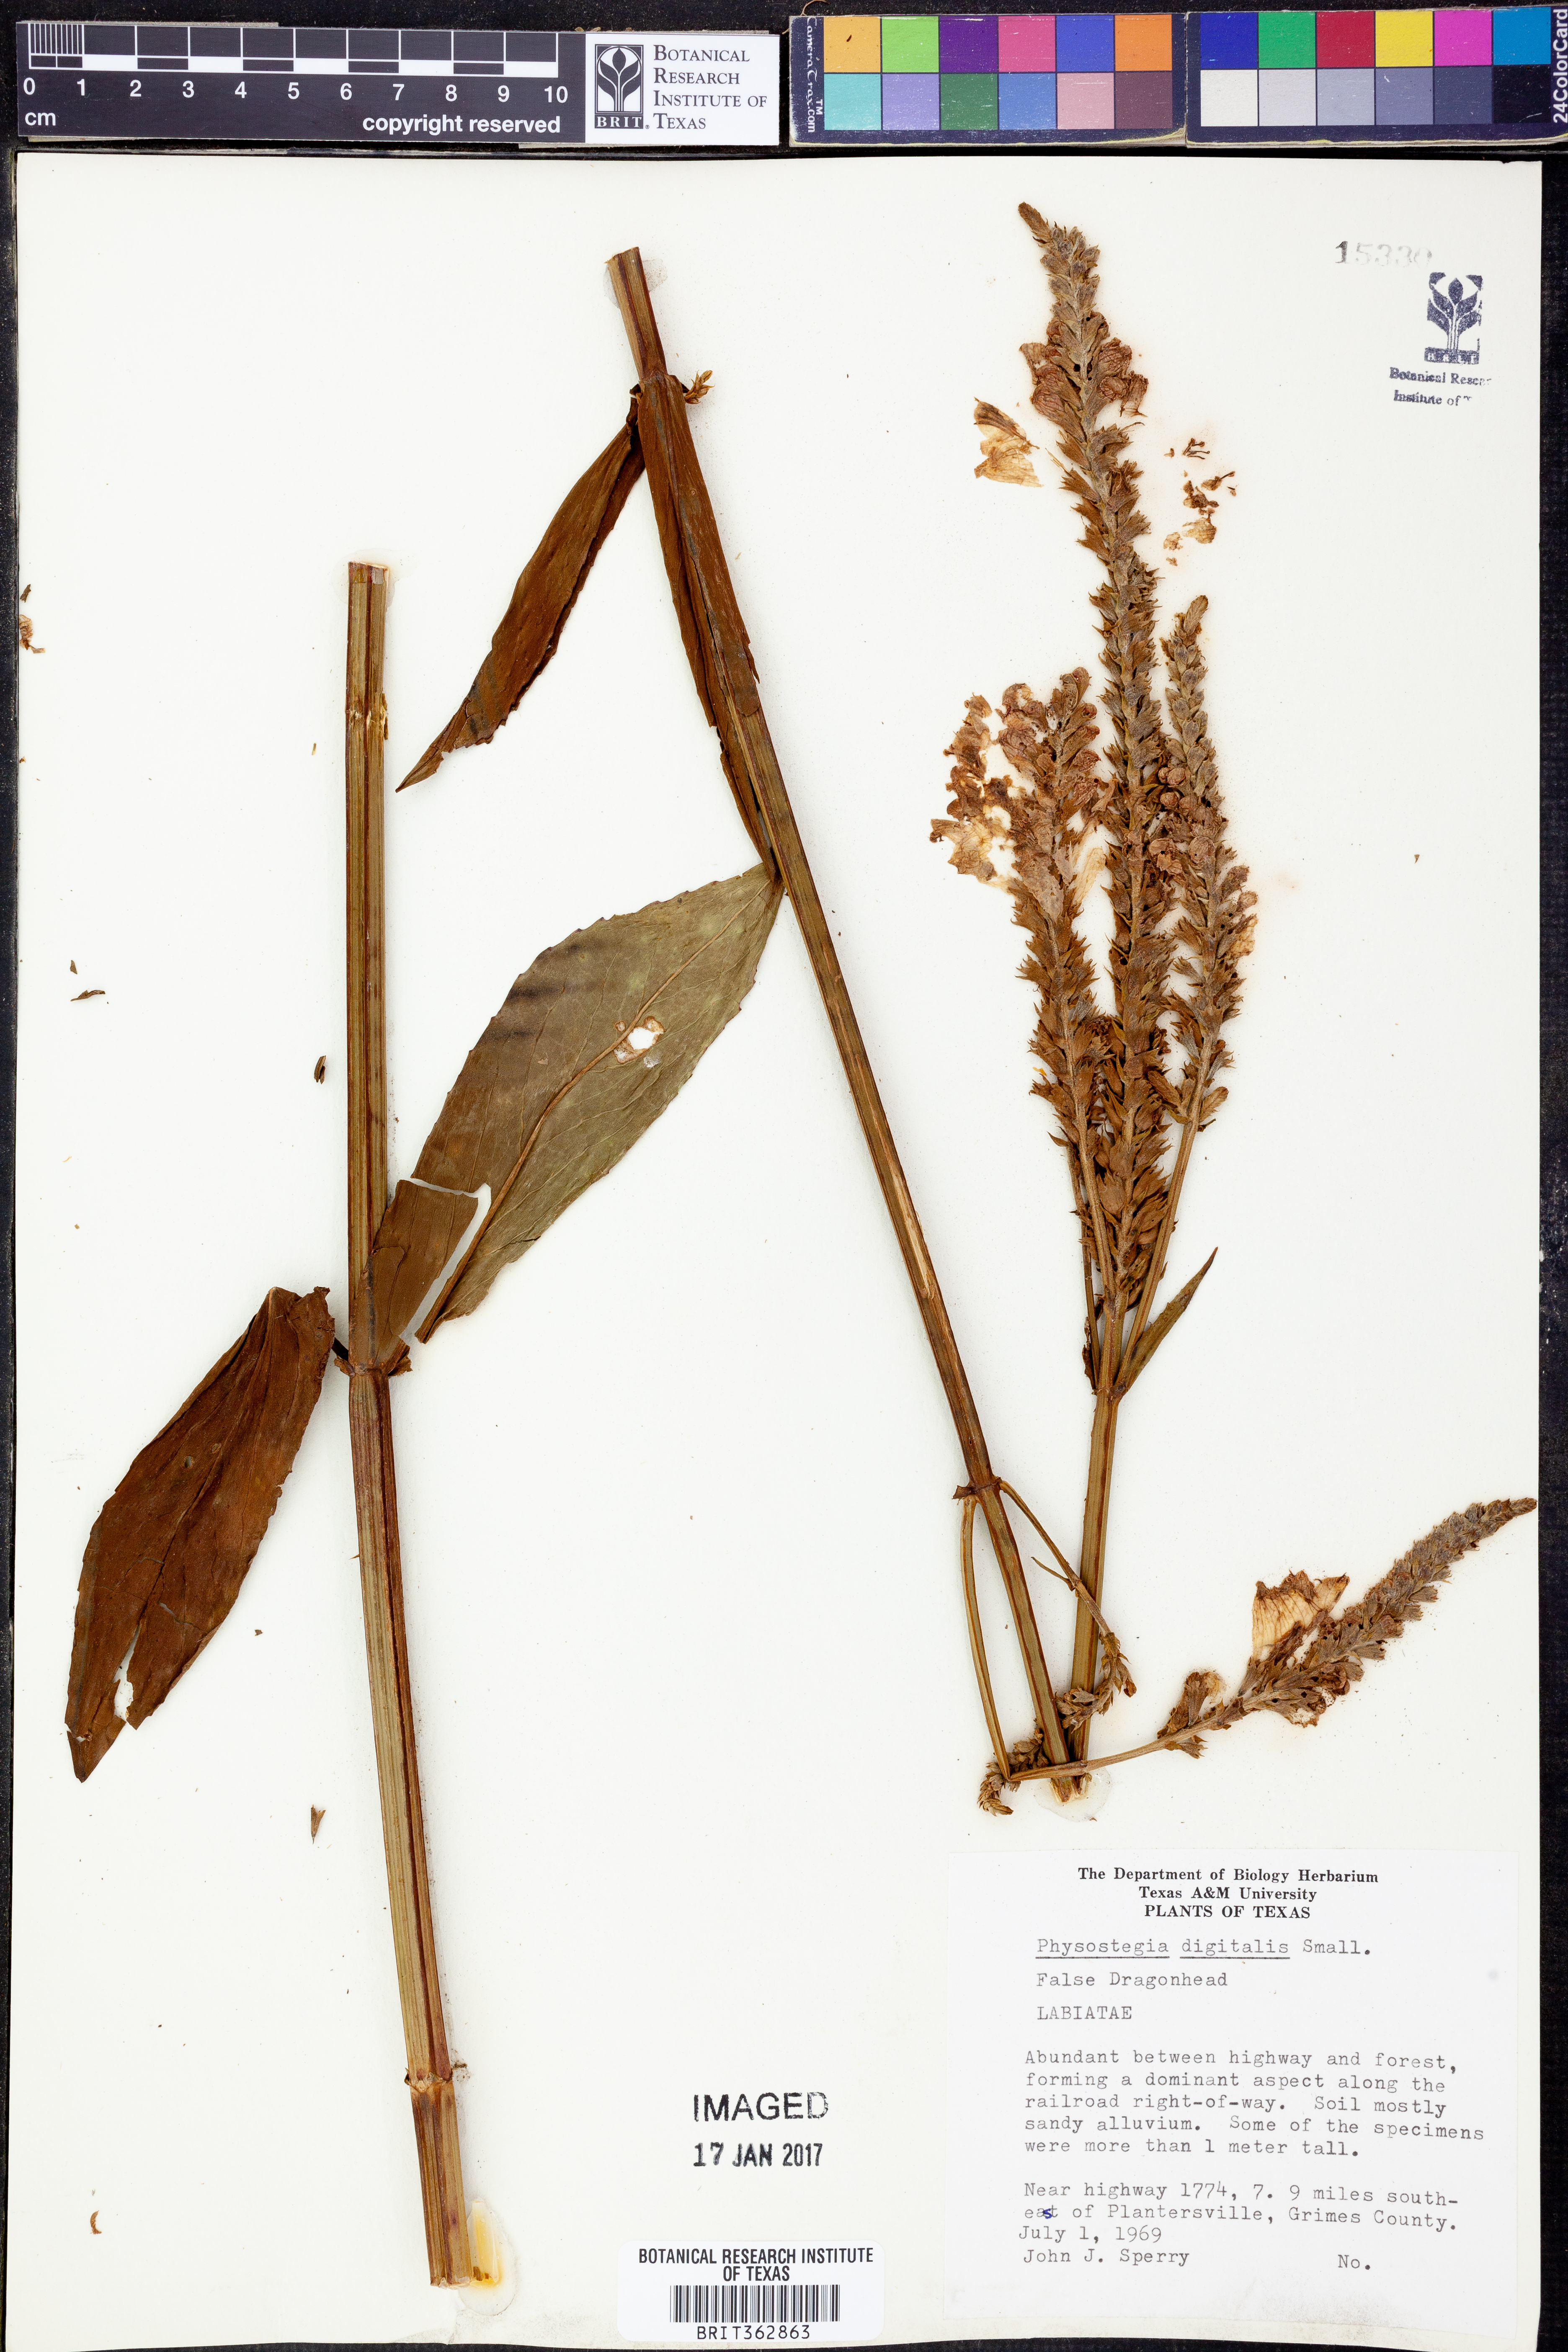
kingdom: Plantae
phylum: Tracheophyta
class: Magnoliopsida
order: Lamiales
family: Lamiaceae
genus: Physostegia
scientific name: Physostegia digitalis
